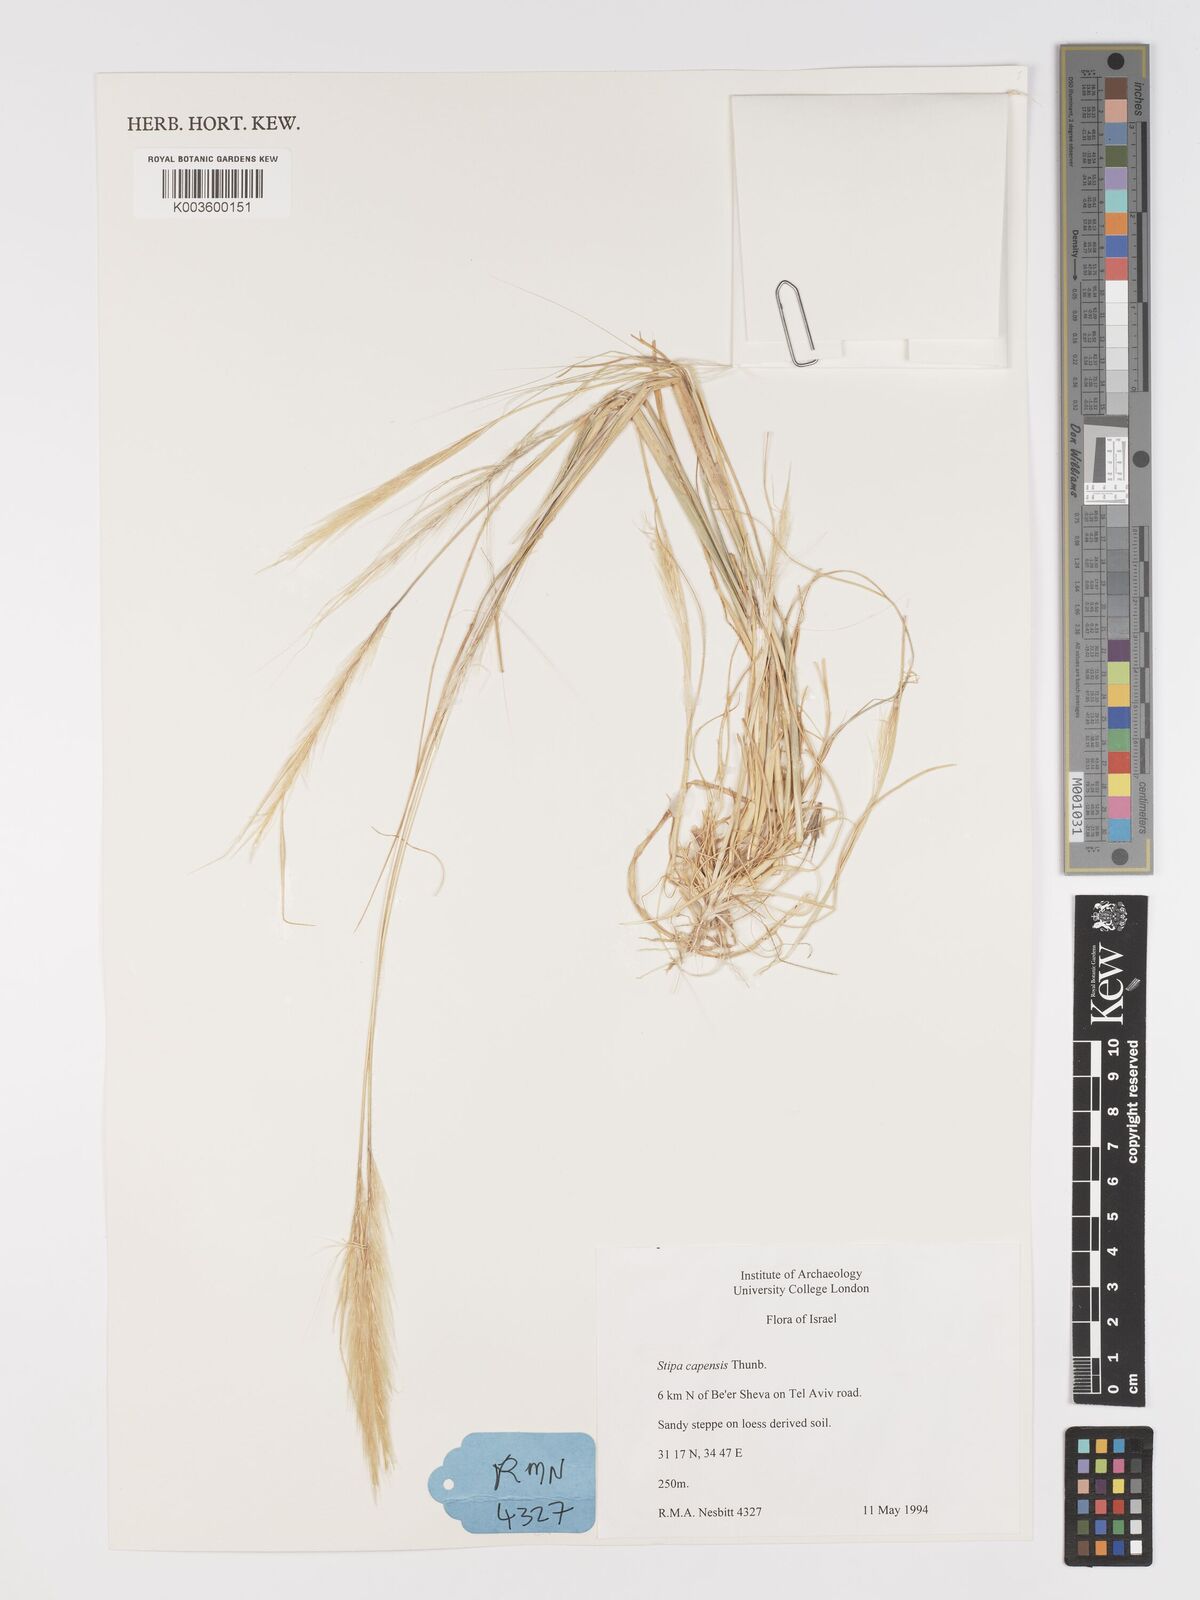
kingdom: Plantae
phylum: Tracheophyta
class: Liliopsida
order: Poales
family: Poaceae
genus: Stipellula
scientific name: Stipellula capensis
